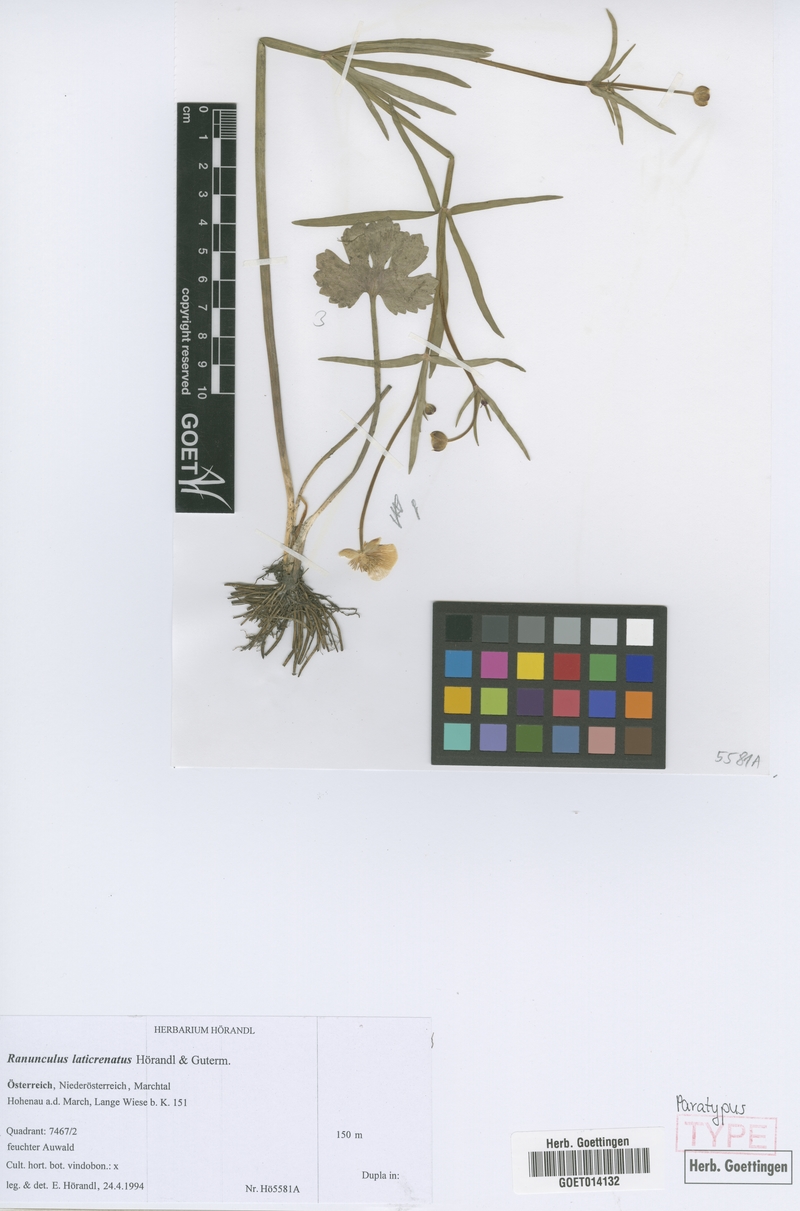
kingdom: Plantae
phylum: Tracheophyta
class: Magnoliopsida
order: Ranunculales
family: Ranunculaceae
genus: Ranunculus
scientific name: Ranunculus laticrenatus
